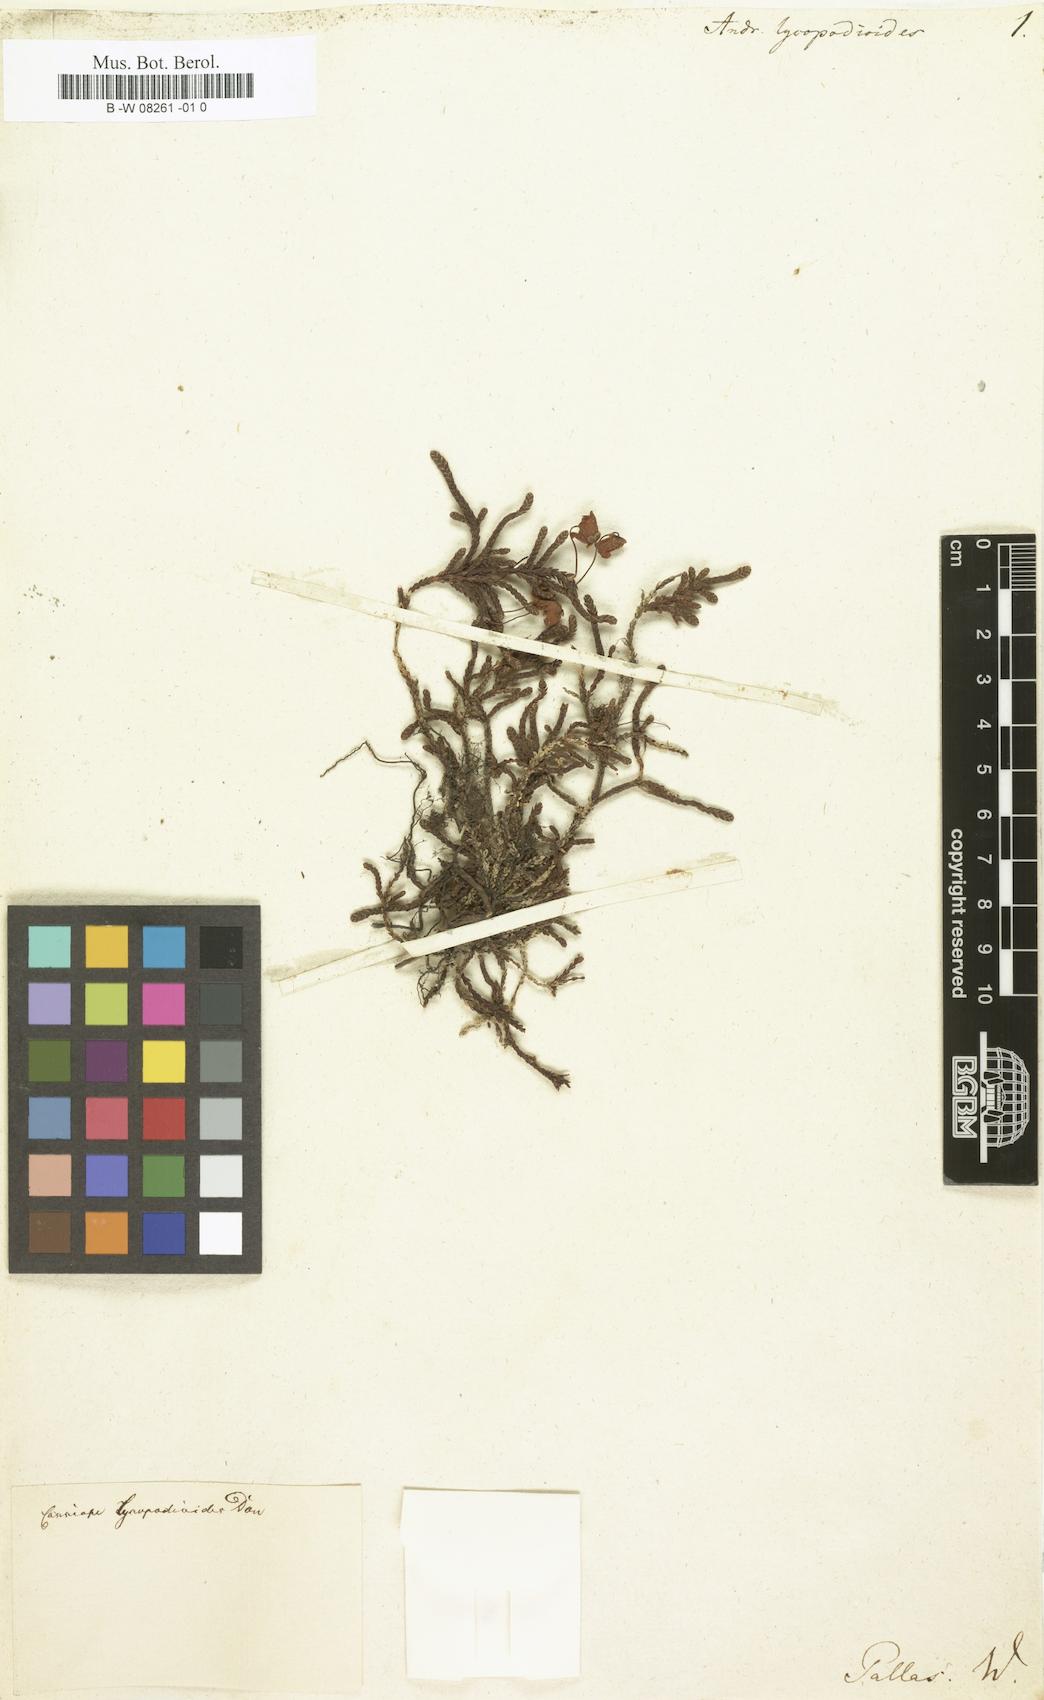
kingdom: Plantae
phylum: Tracheophyta
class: Magnoliopsida
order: Ericales
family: Ericaceae
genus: Cassiope
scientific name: Cassiope lycopodioides
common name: Clubmoss mountain heather
